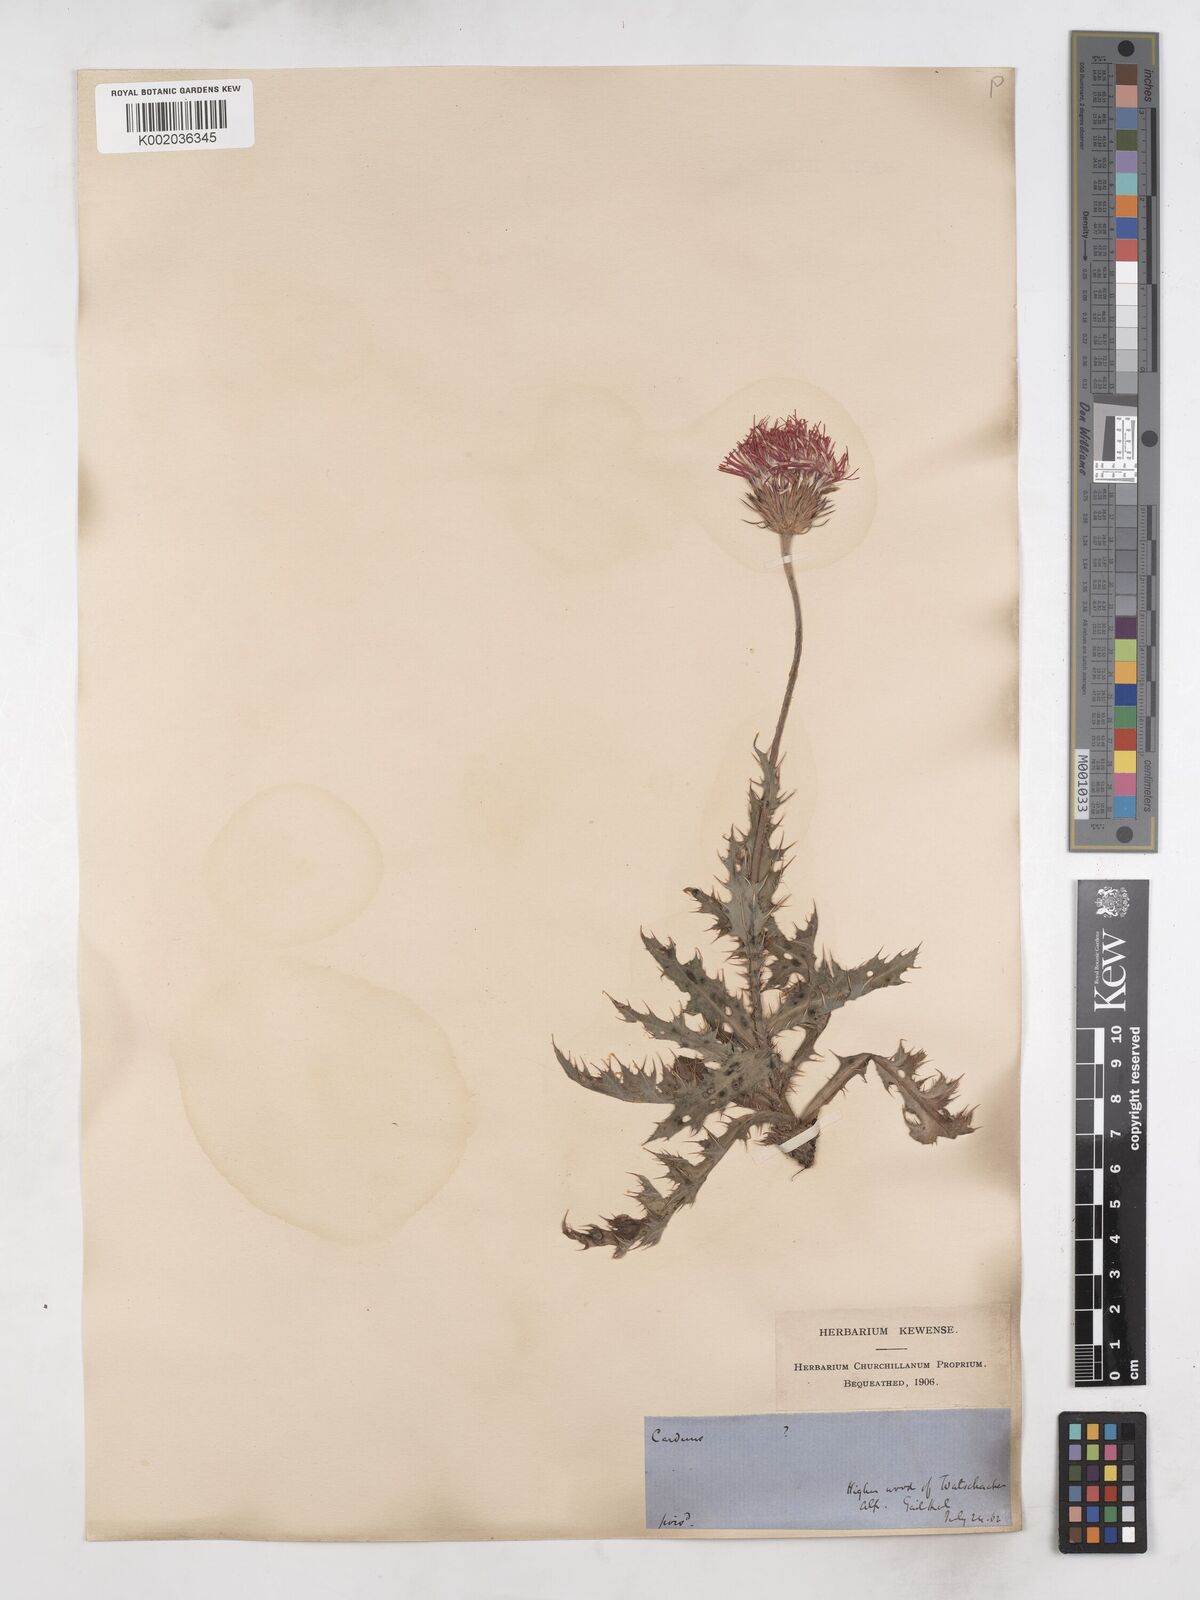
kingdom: Plantae
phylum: Tracheophyta
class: Magnoliopsida
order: Asterales
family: Asteraceae
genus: Carduus
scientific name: Carduus defloratus
